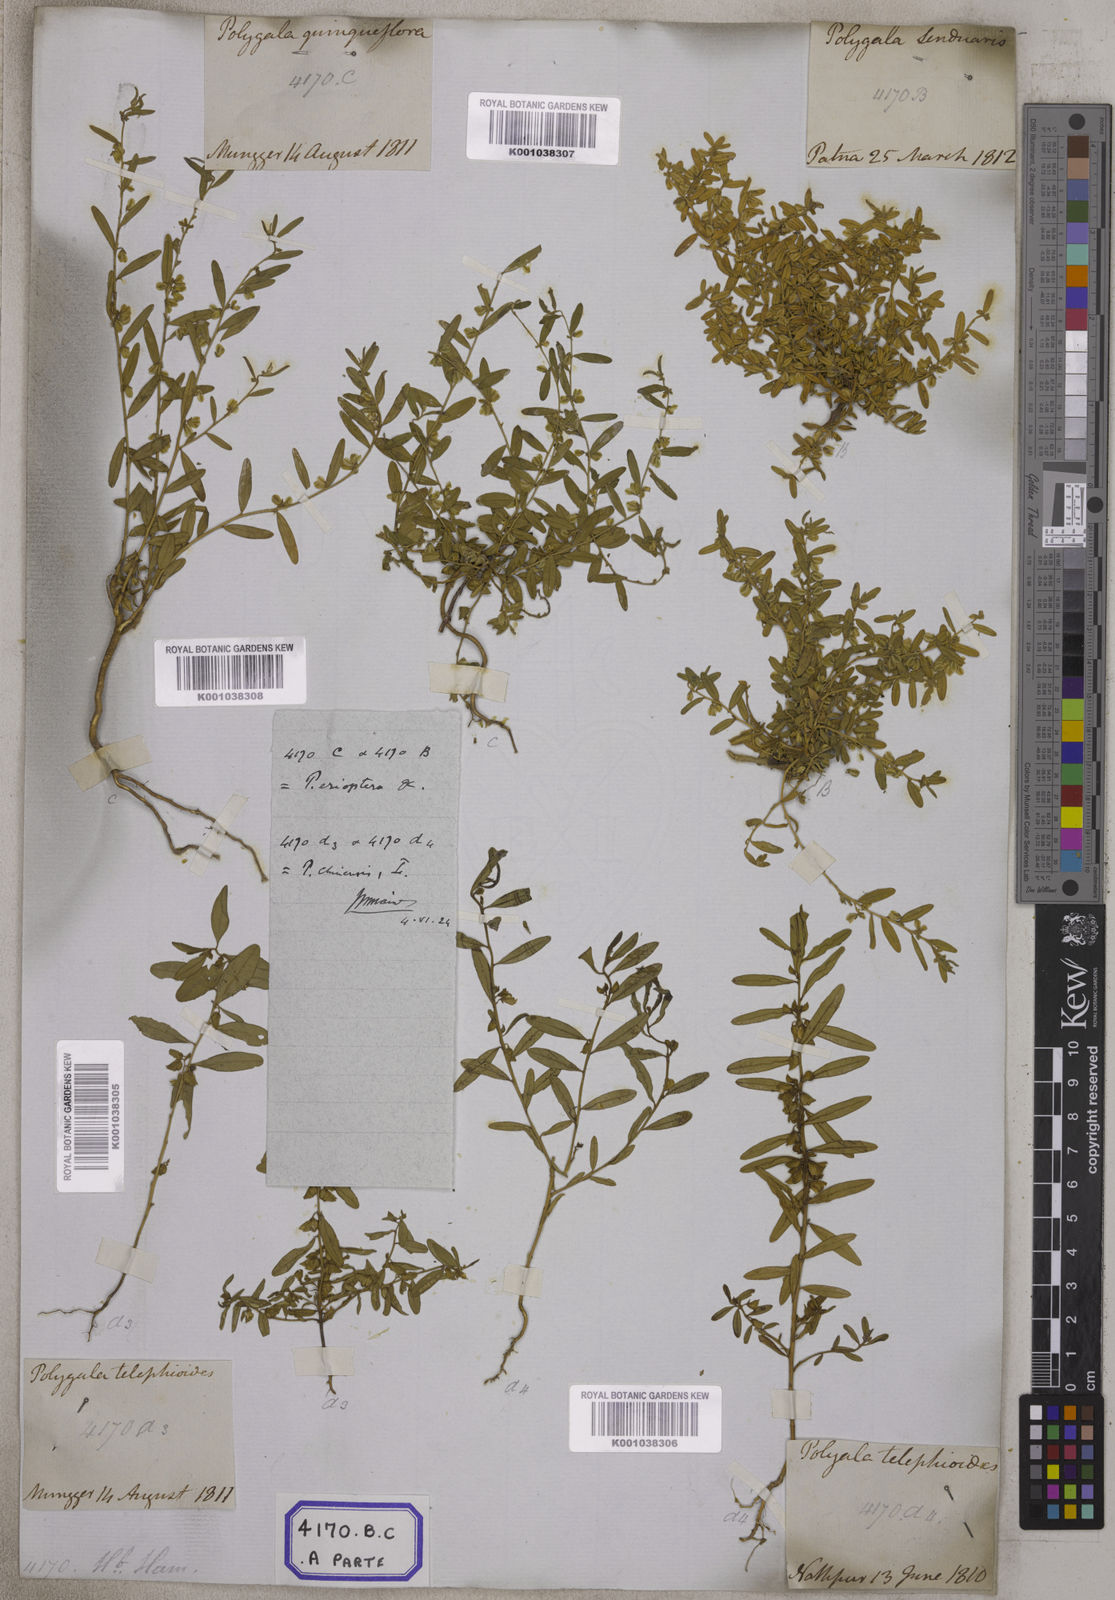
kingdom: Plantae
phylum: Tracheophyta
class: Magnoliopsida
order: Fabales
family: Polygalaceae
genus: Polygala
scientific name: Polygala telephioides
